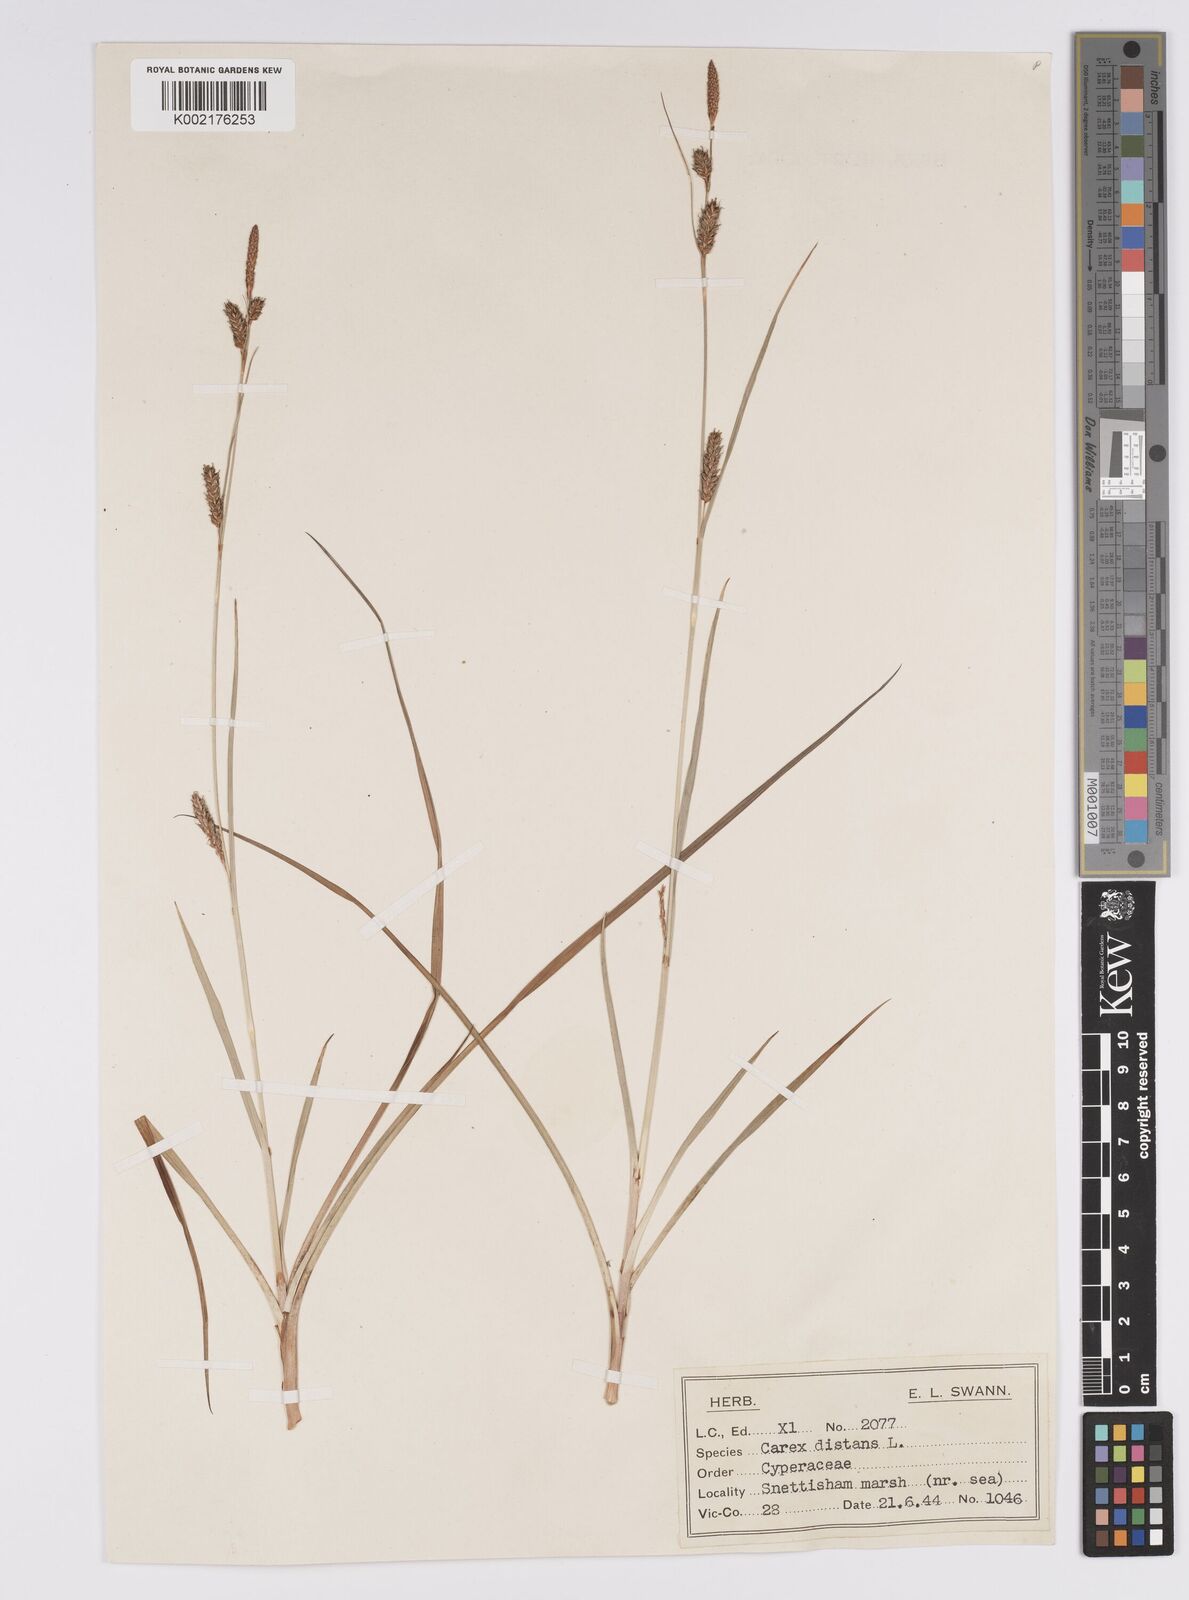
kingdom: Plantae
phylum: Tracheophyta
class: Liliopsida
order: Poales
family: Cyperaceae
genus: Carex
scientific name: Carex distans
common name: Distant sedge
